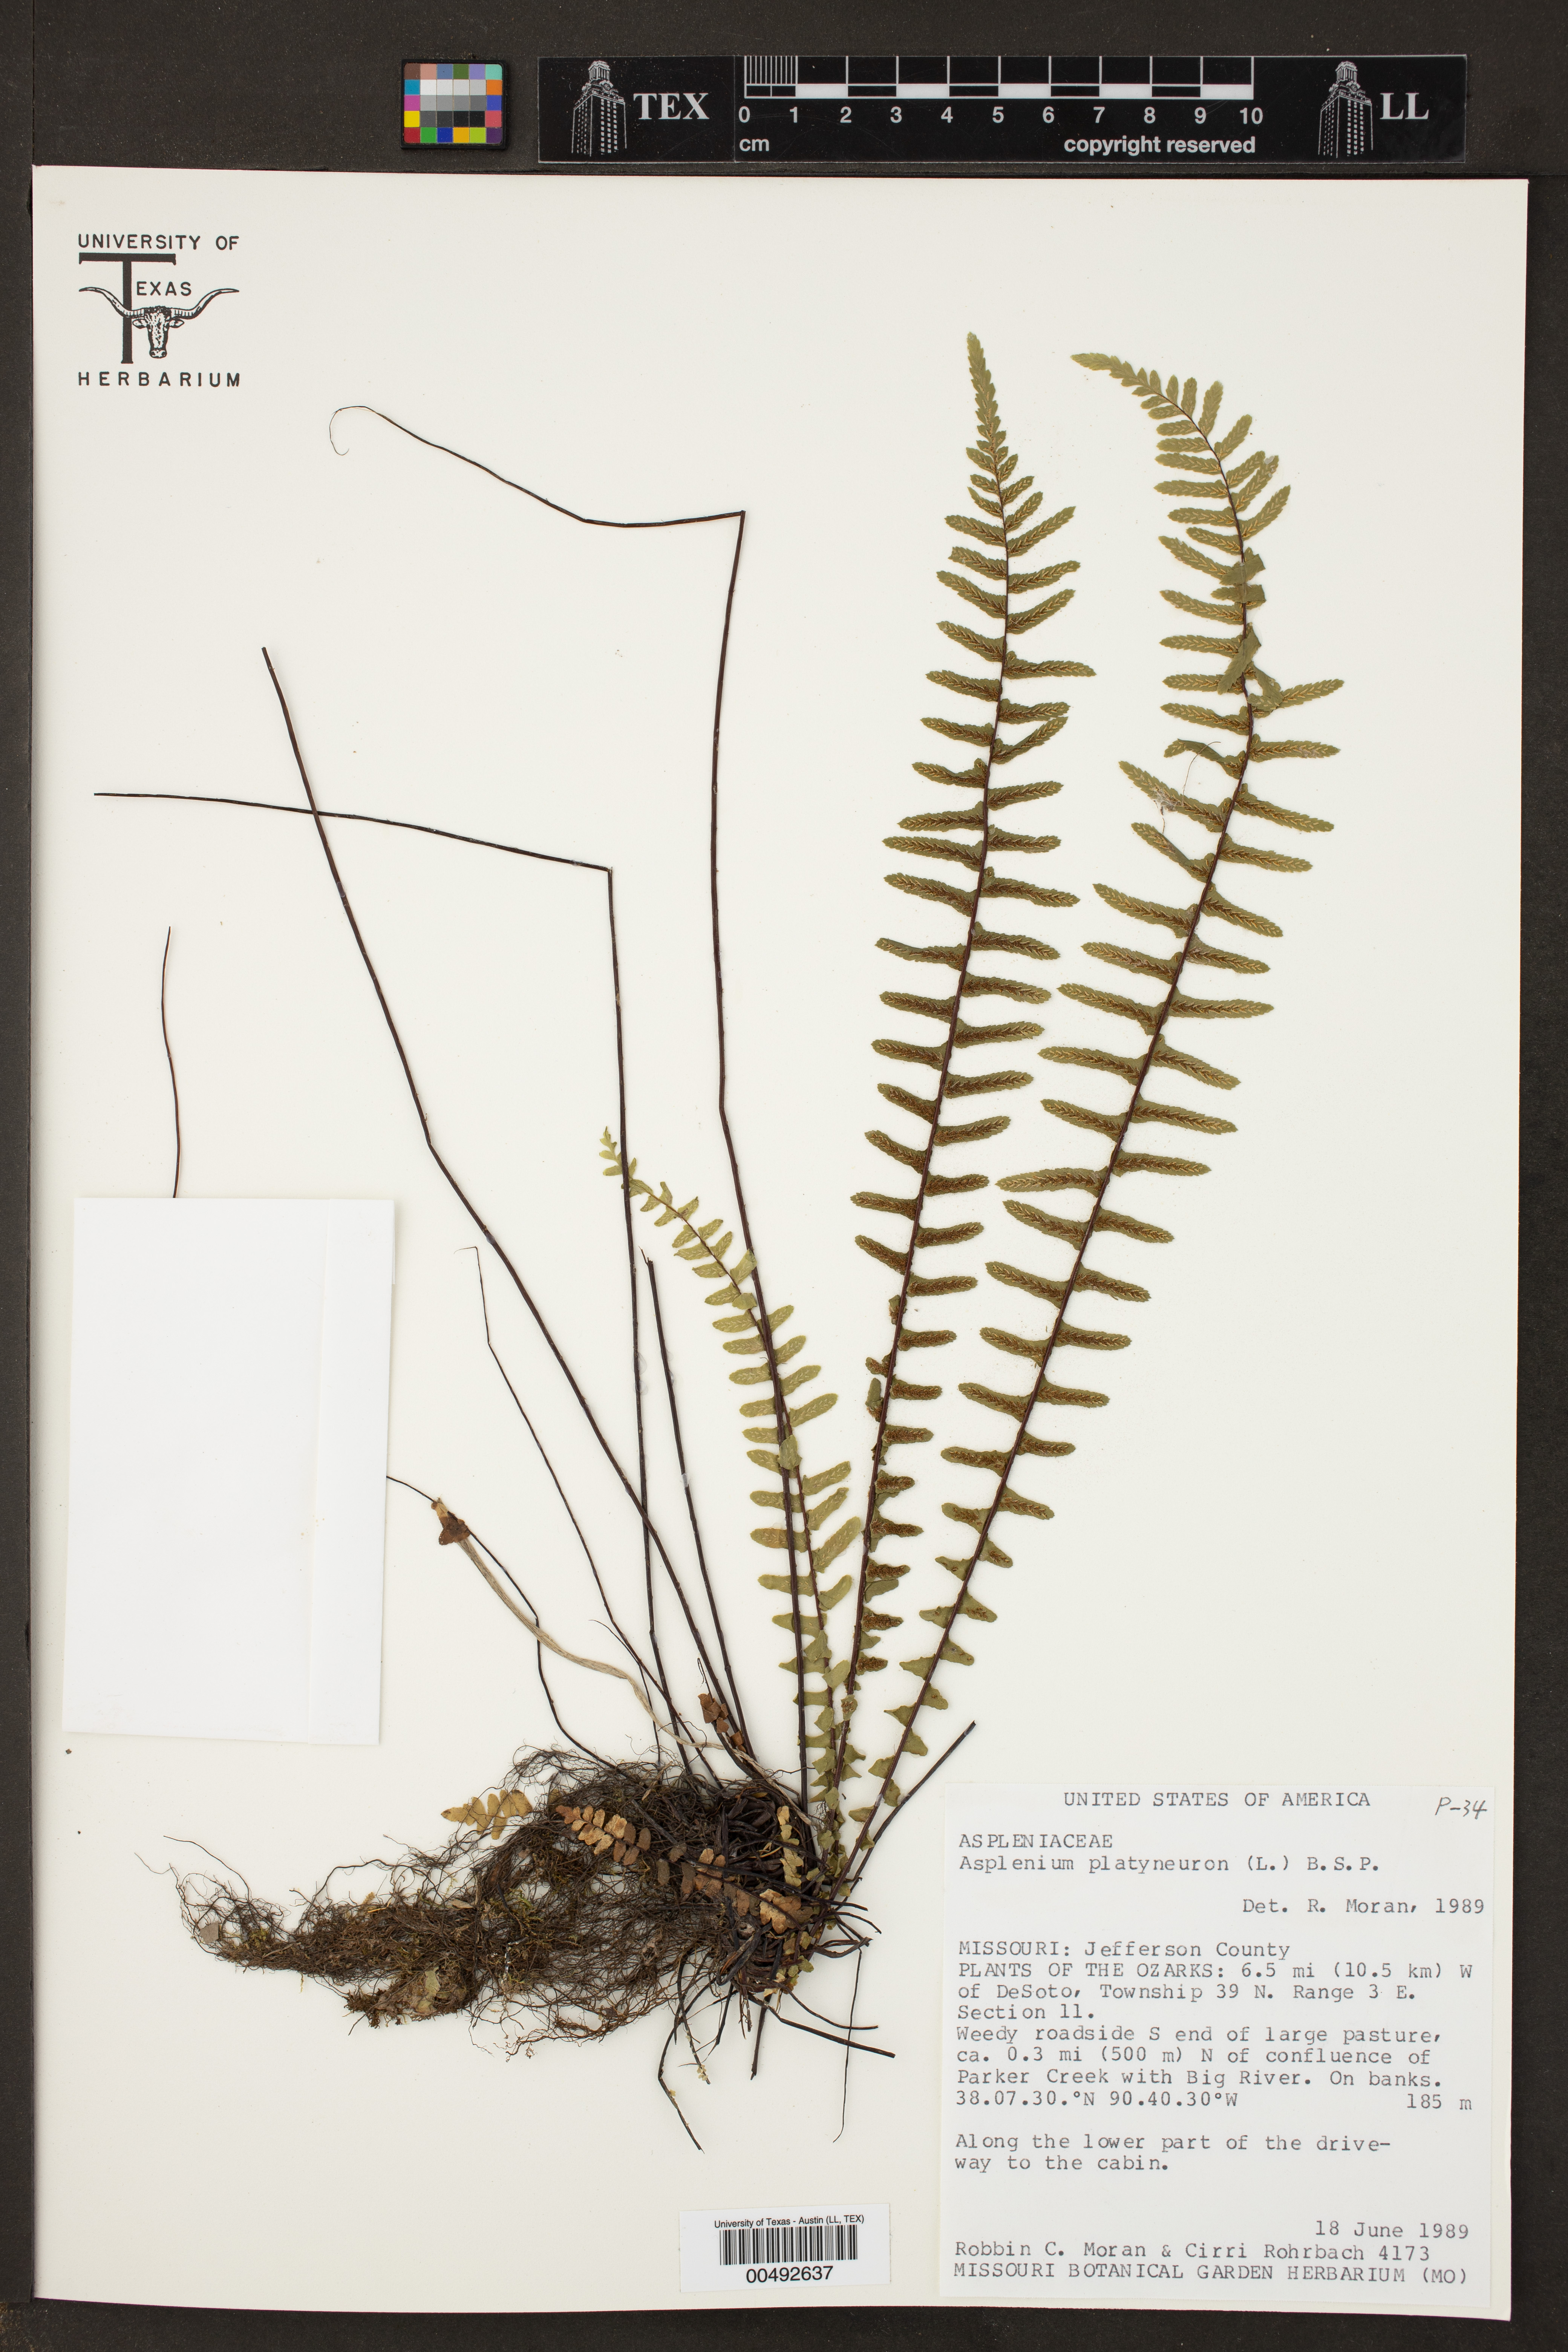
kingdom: Plantae
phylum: Tracheophyta
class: Polypodiopsida
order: Polypodiales
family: Aspleniaceae
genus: Asplenium
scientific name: Asplenium platyneuron
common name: Ebony spleenwort
